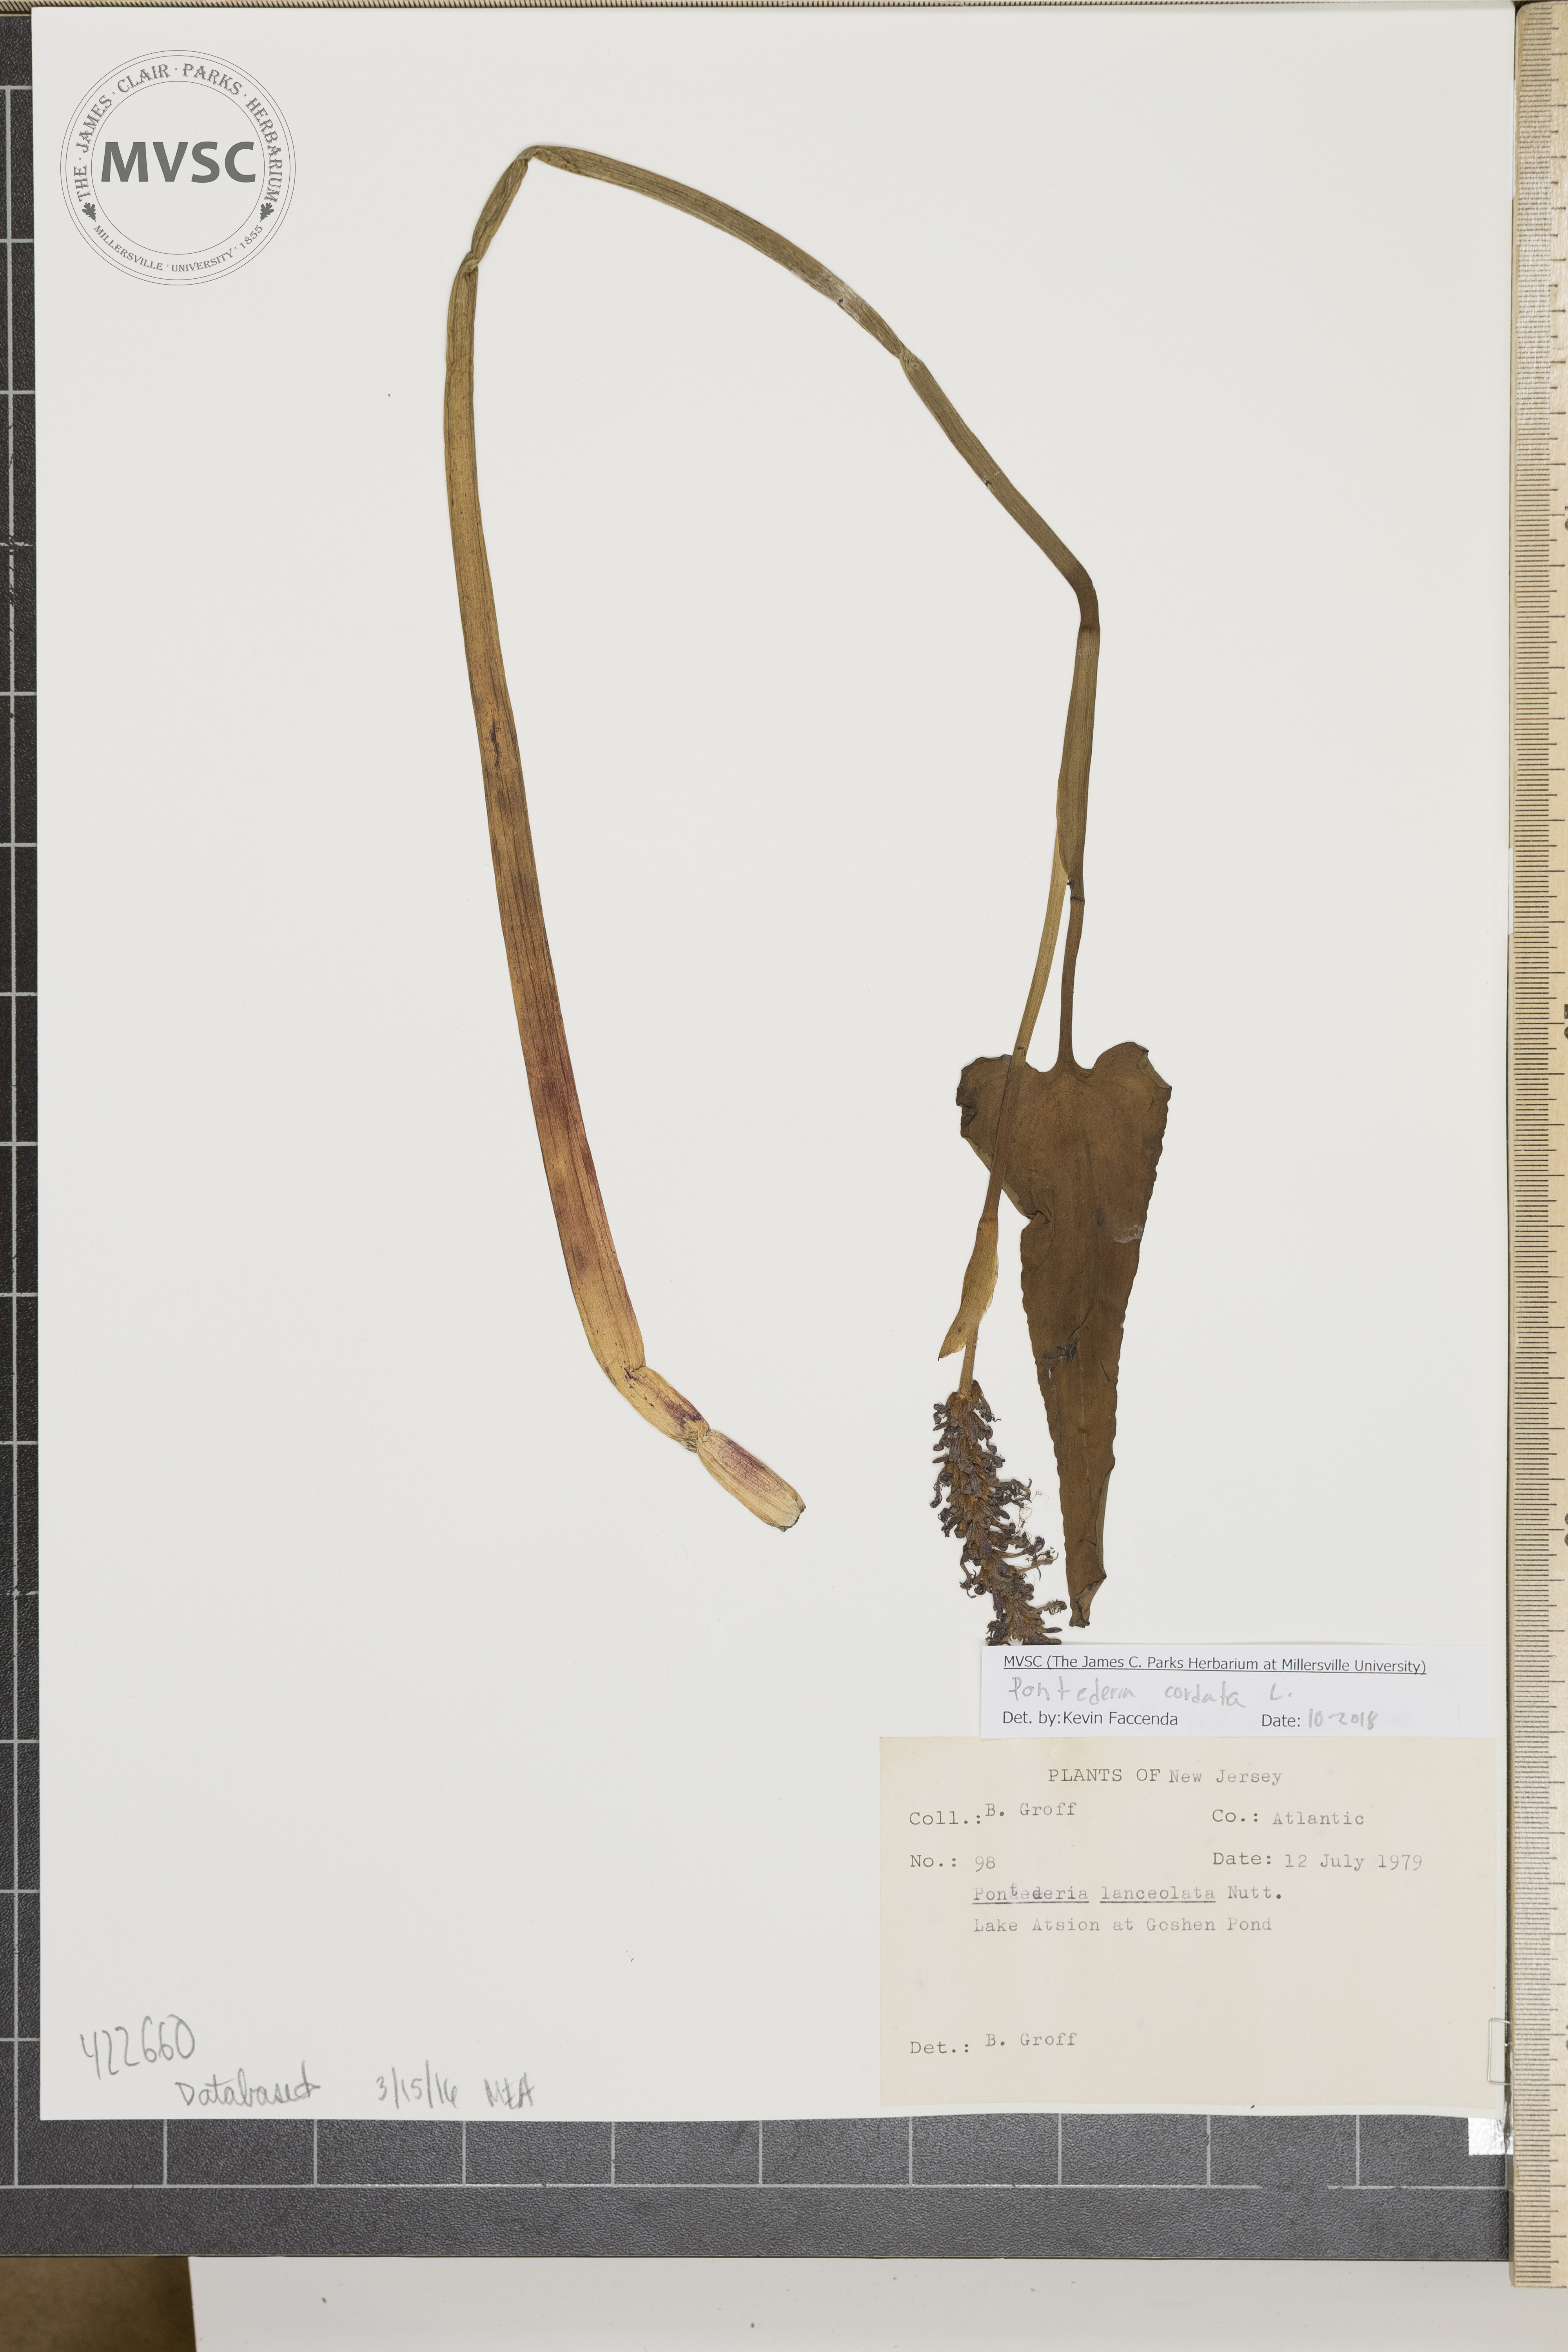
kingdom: Plantae
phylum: Tracheophyta
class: Liliopsida
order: Commelinales
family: Pontederiaceae
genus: Pontederia
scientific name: Pontederia cordata
